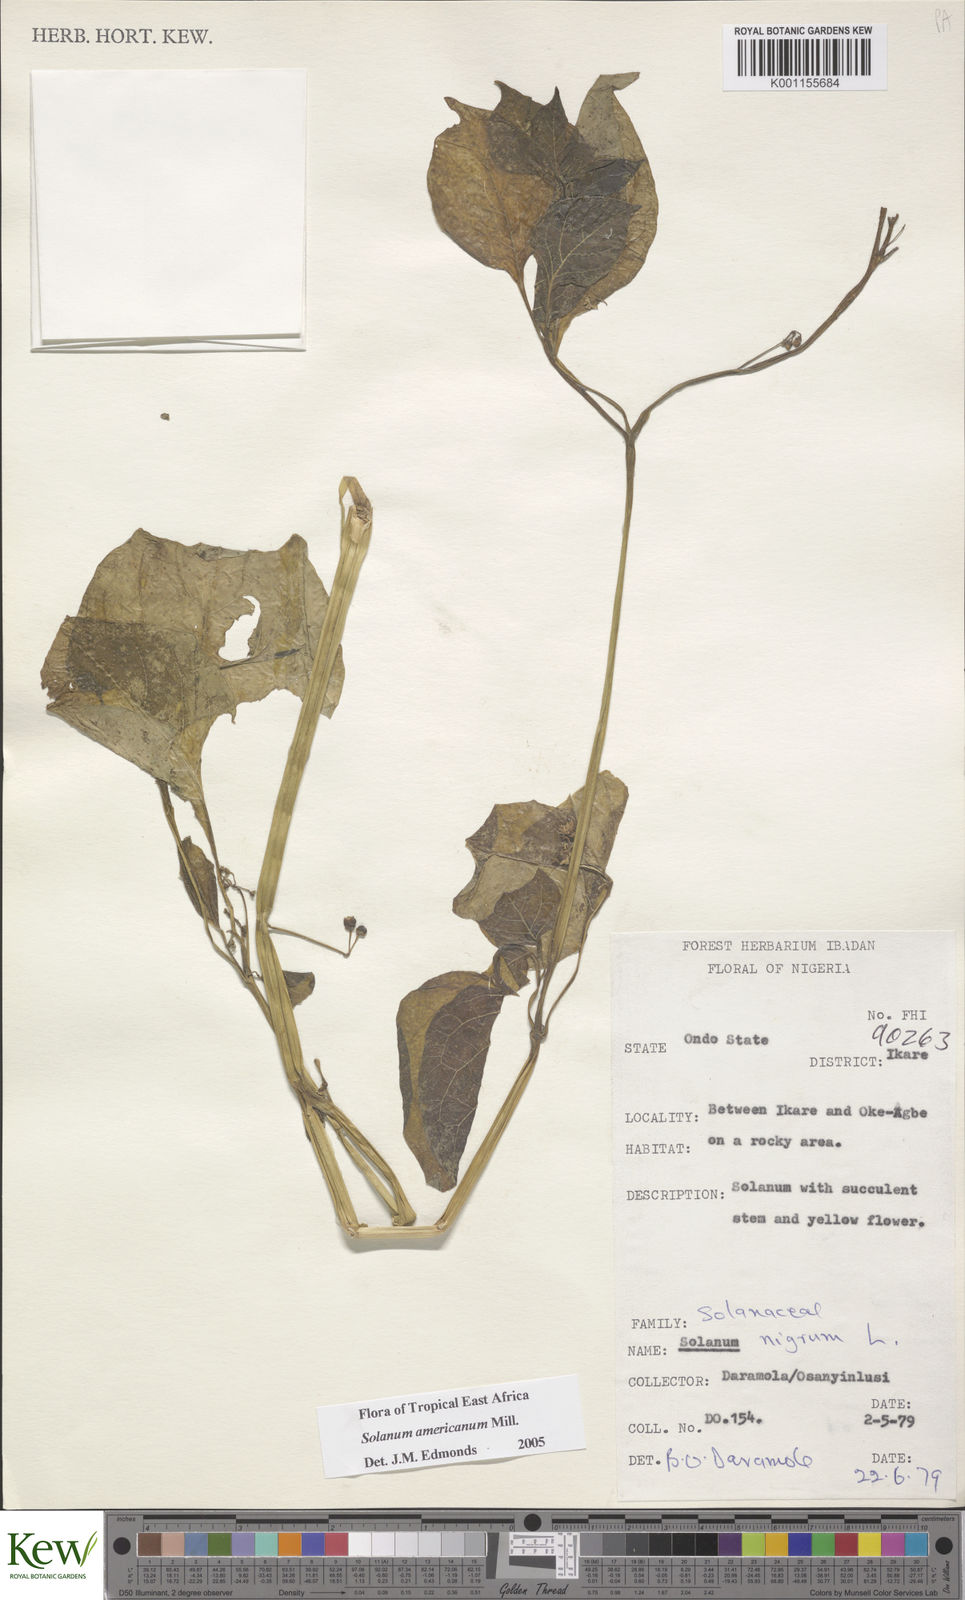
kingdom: Plantae
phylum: Tracheophyta
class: Magnoliopsida
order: Solanales
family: Solanaceae
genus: Solanum
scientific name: Solanum scabrum
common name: Garden-huckleberry
